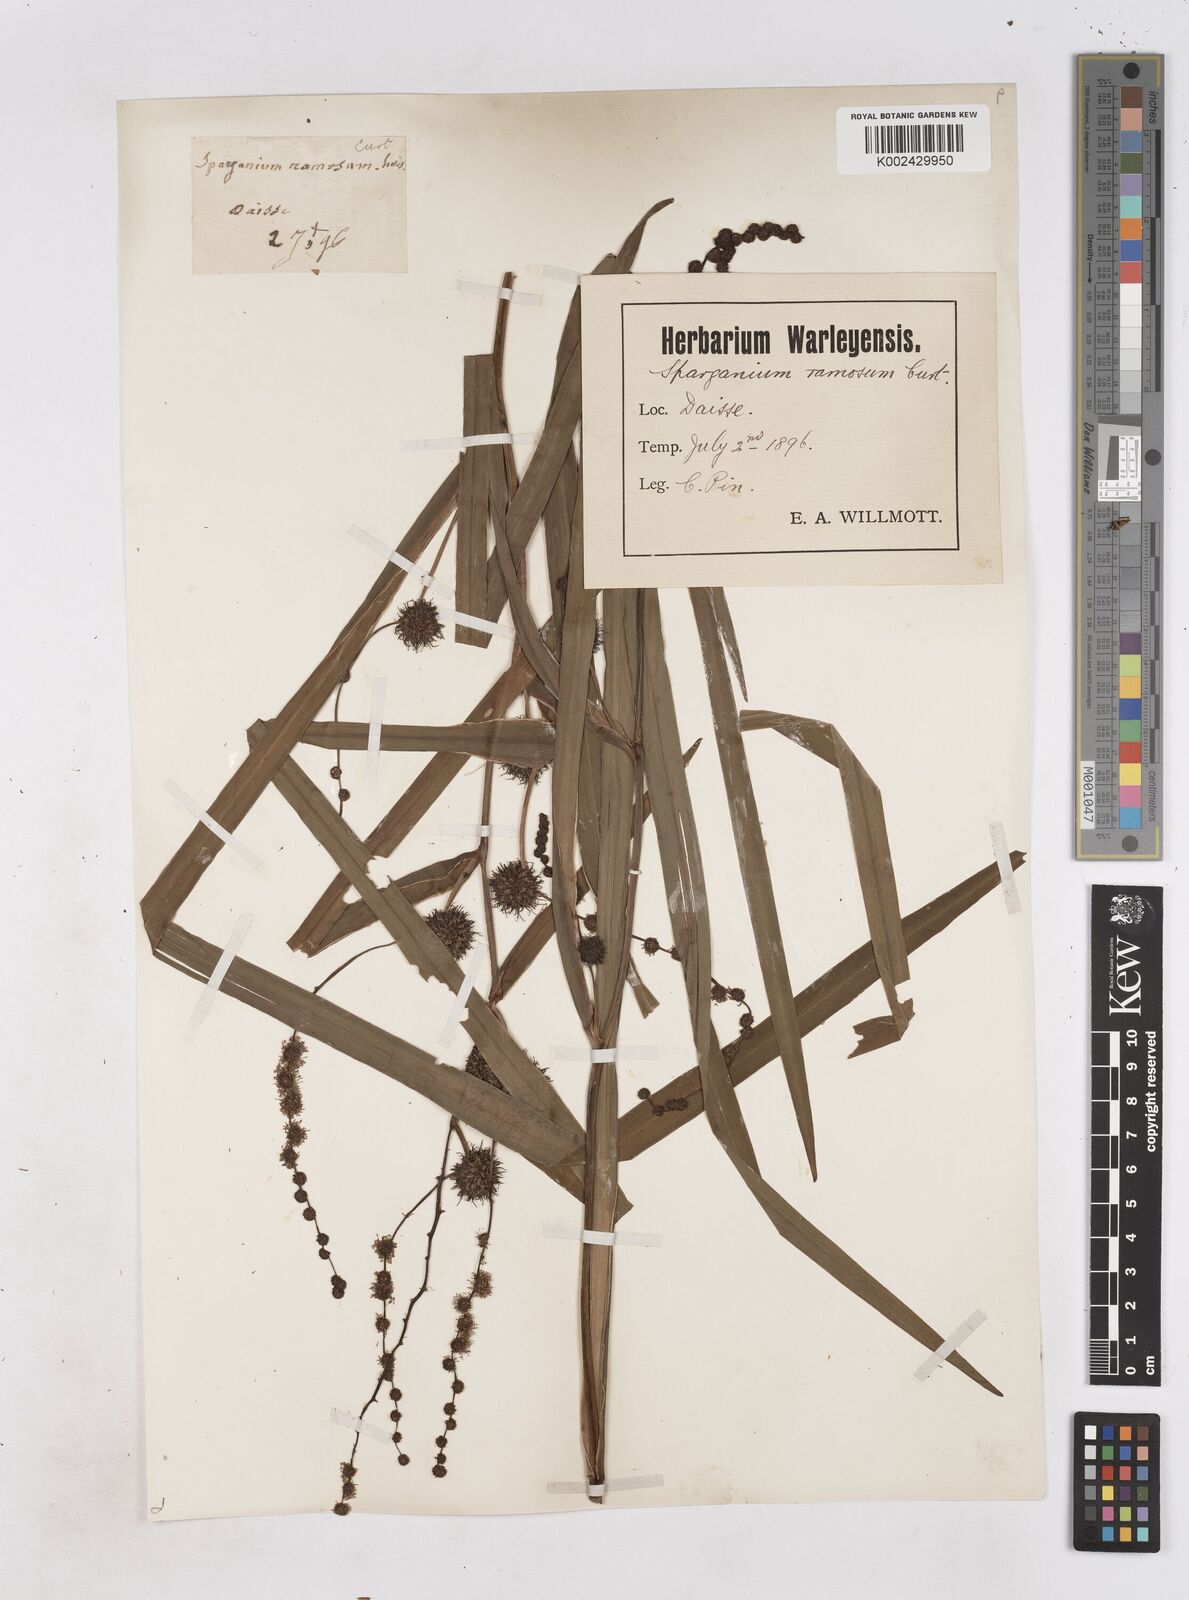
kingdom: Plantae
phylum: Tracheophyta
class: Liliopsida
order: Poales
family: Typhaceae
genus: Sparganium
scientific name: Sparganium erectum
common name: Branched bur-reed
